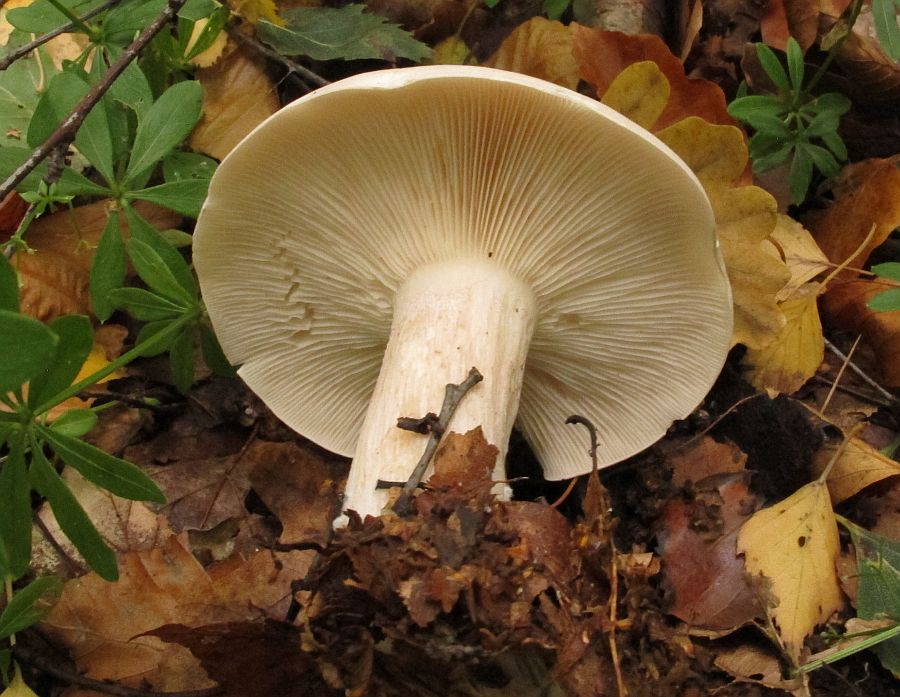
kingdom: Fungi
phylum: Basidiomycota
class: Agaricomycetes
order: Agaricales
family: Tricholomataceae
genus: Clitocybe
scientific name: Clitocybe nebularis
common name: tåge-tragthat
